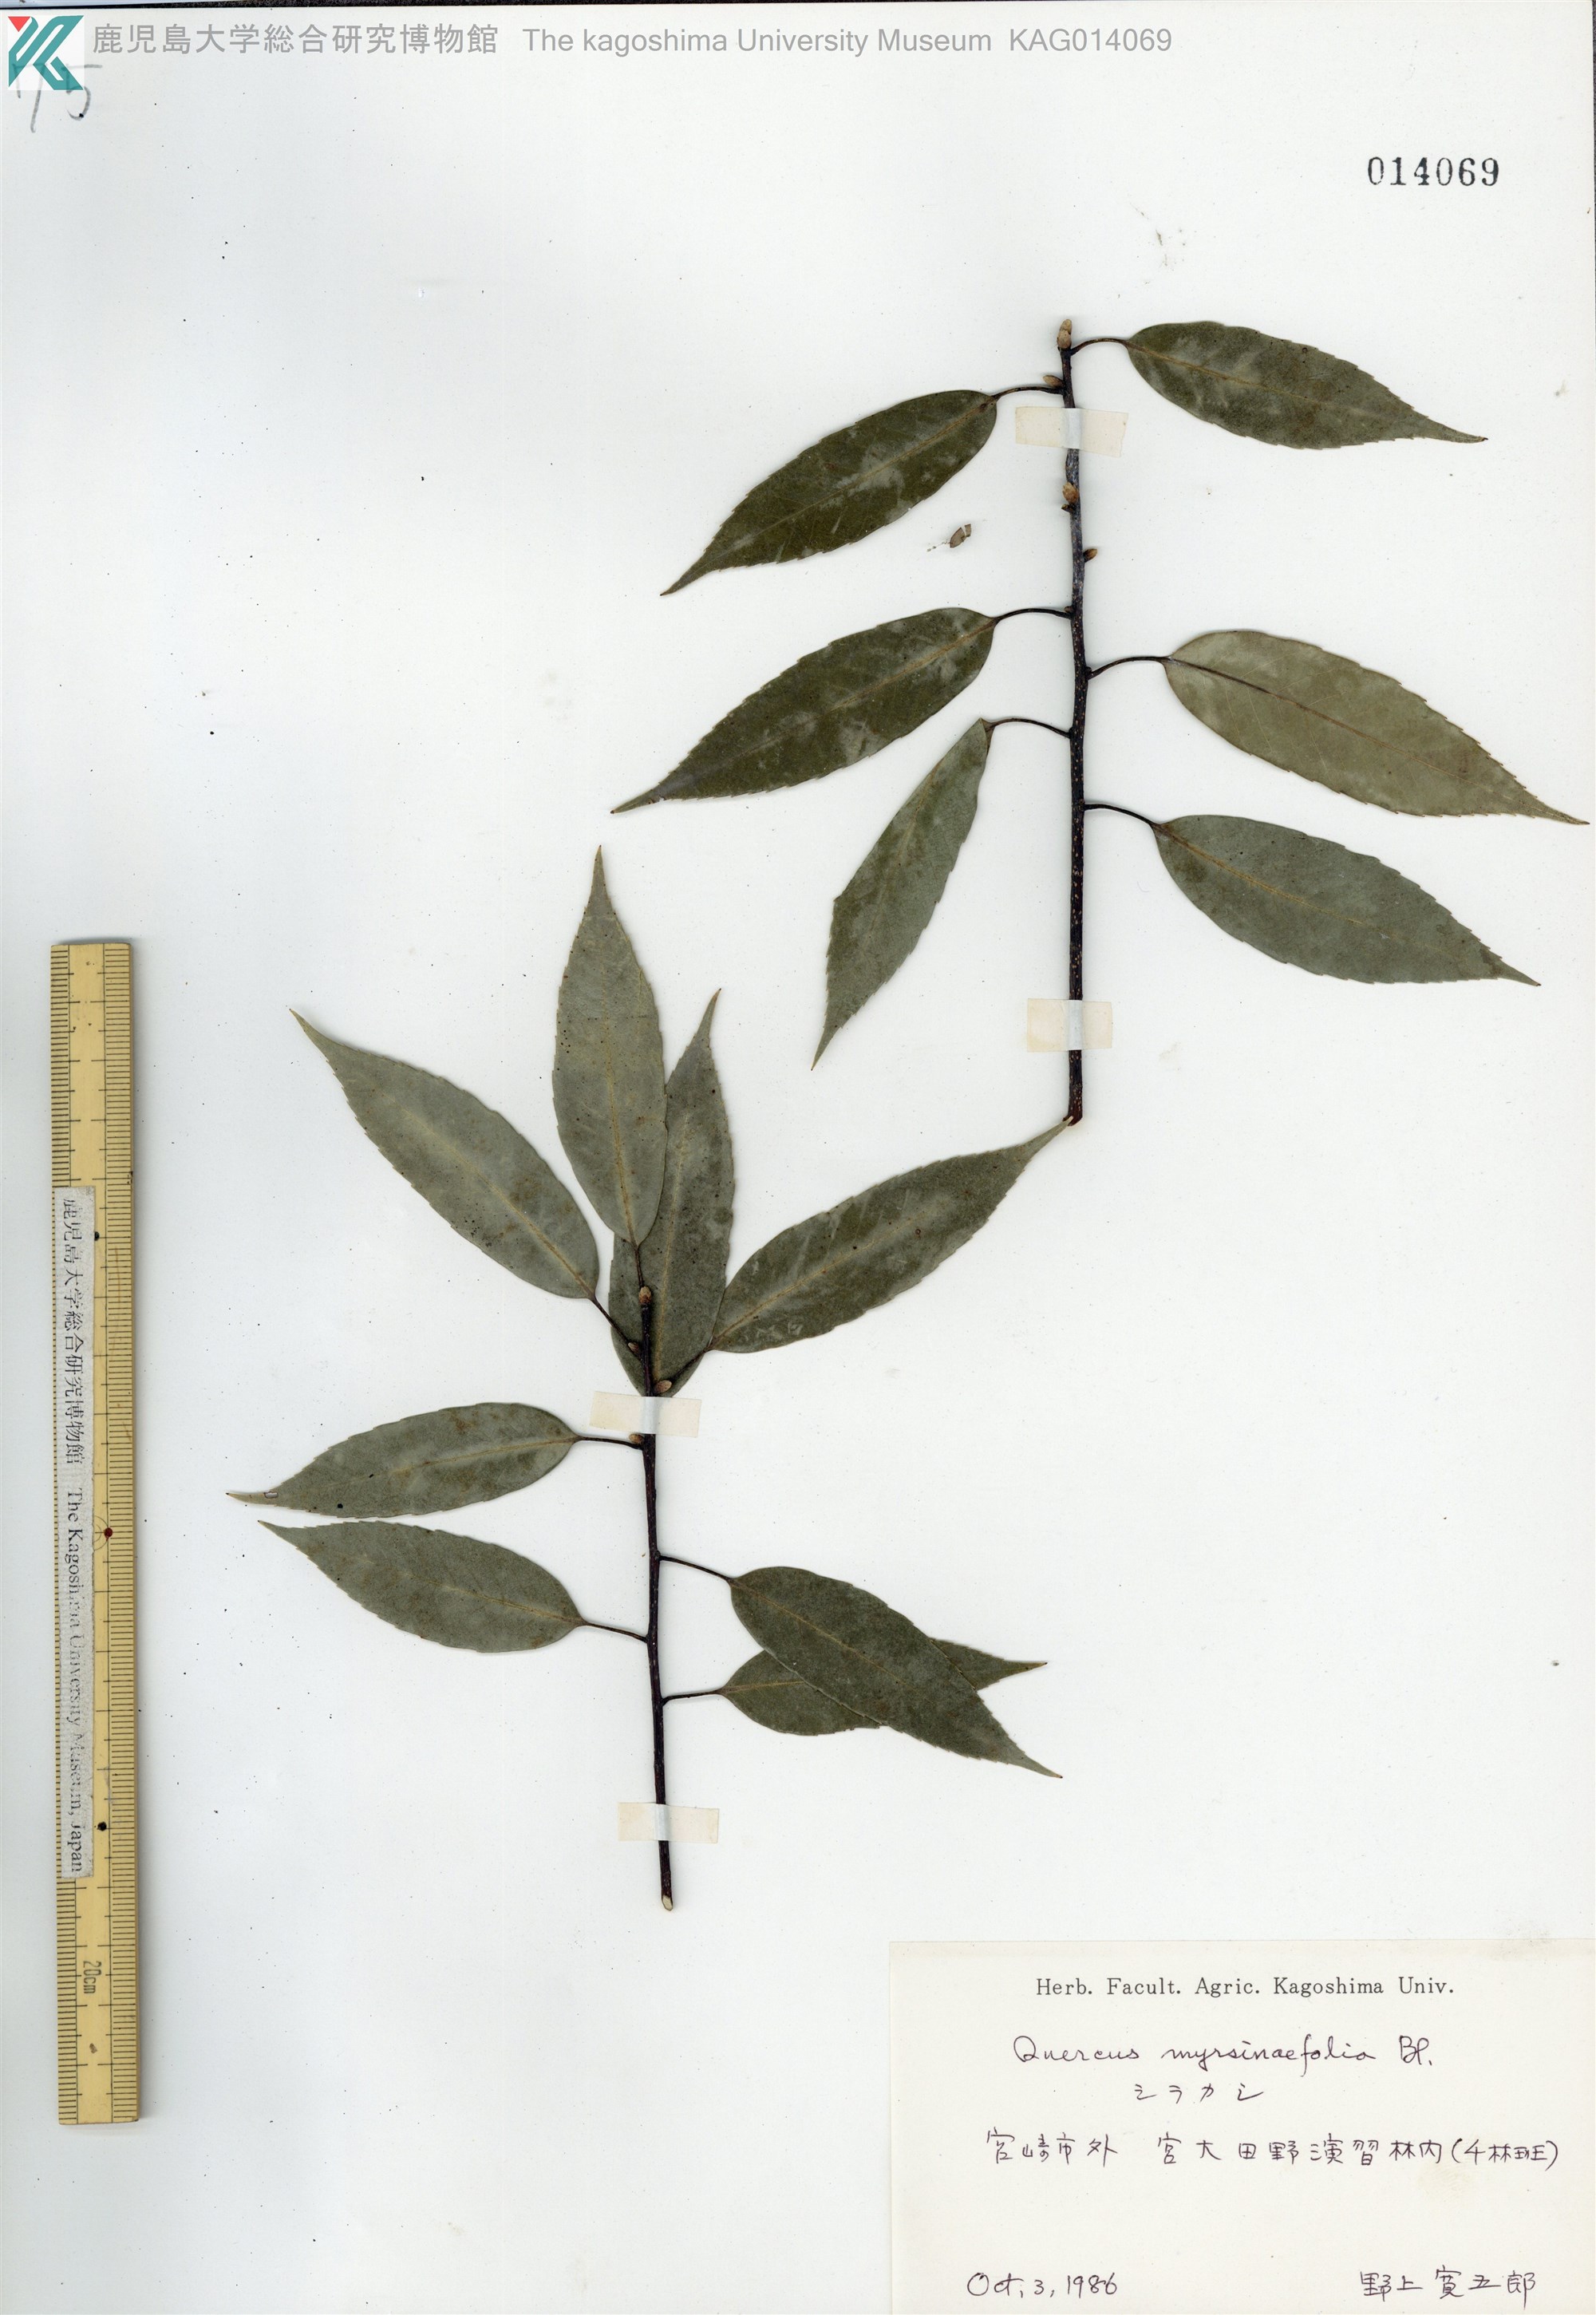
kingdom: Plantae
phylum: Tracheophyta
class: Magnoliopsida
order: Fagales
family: Fagaceae
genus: Quercus
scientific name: Quercus myrsinaefolia
